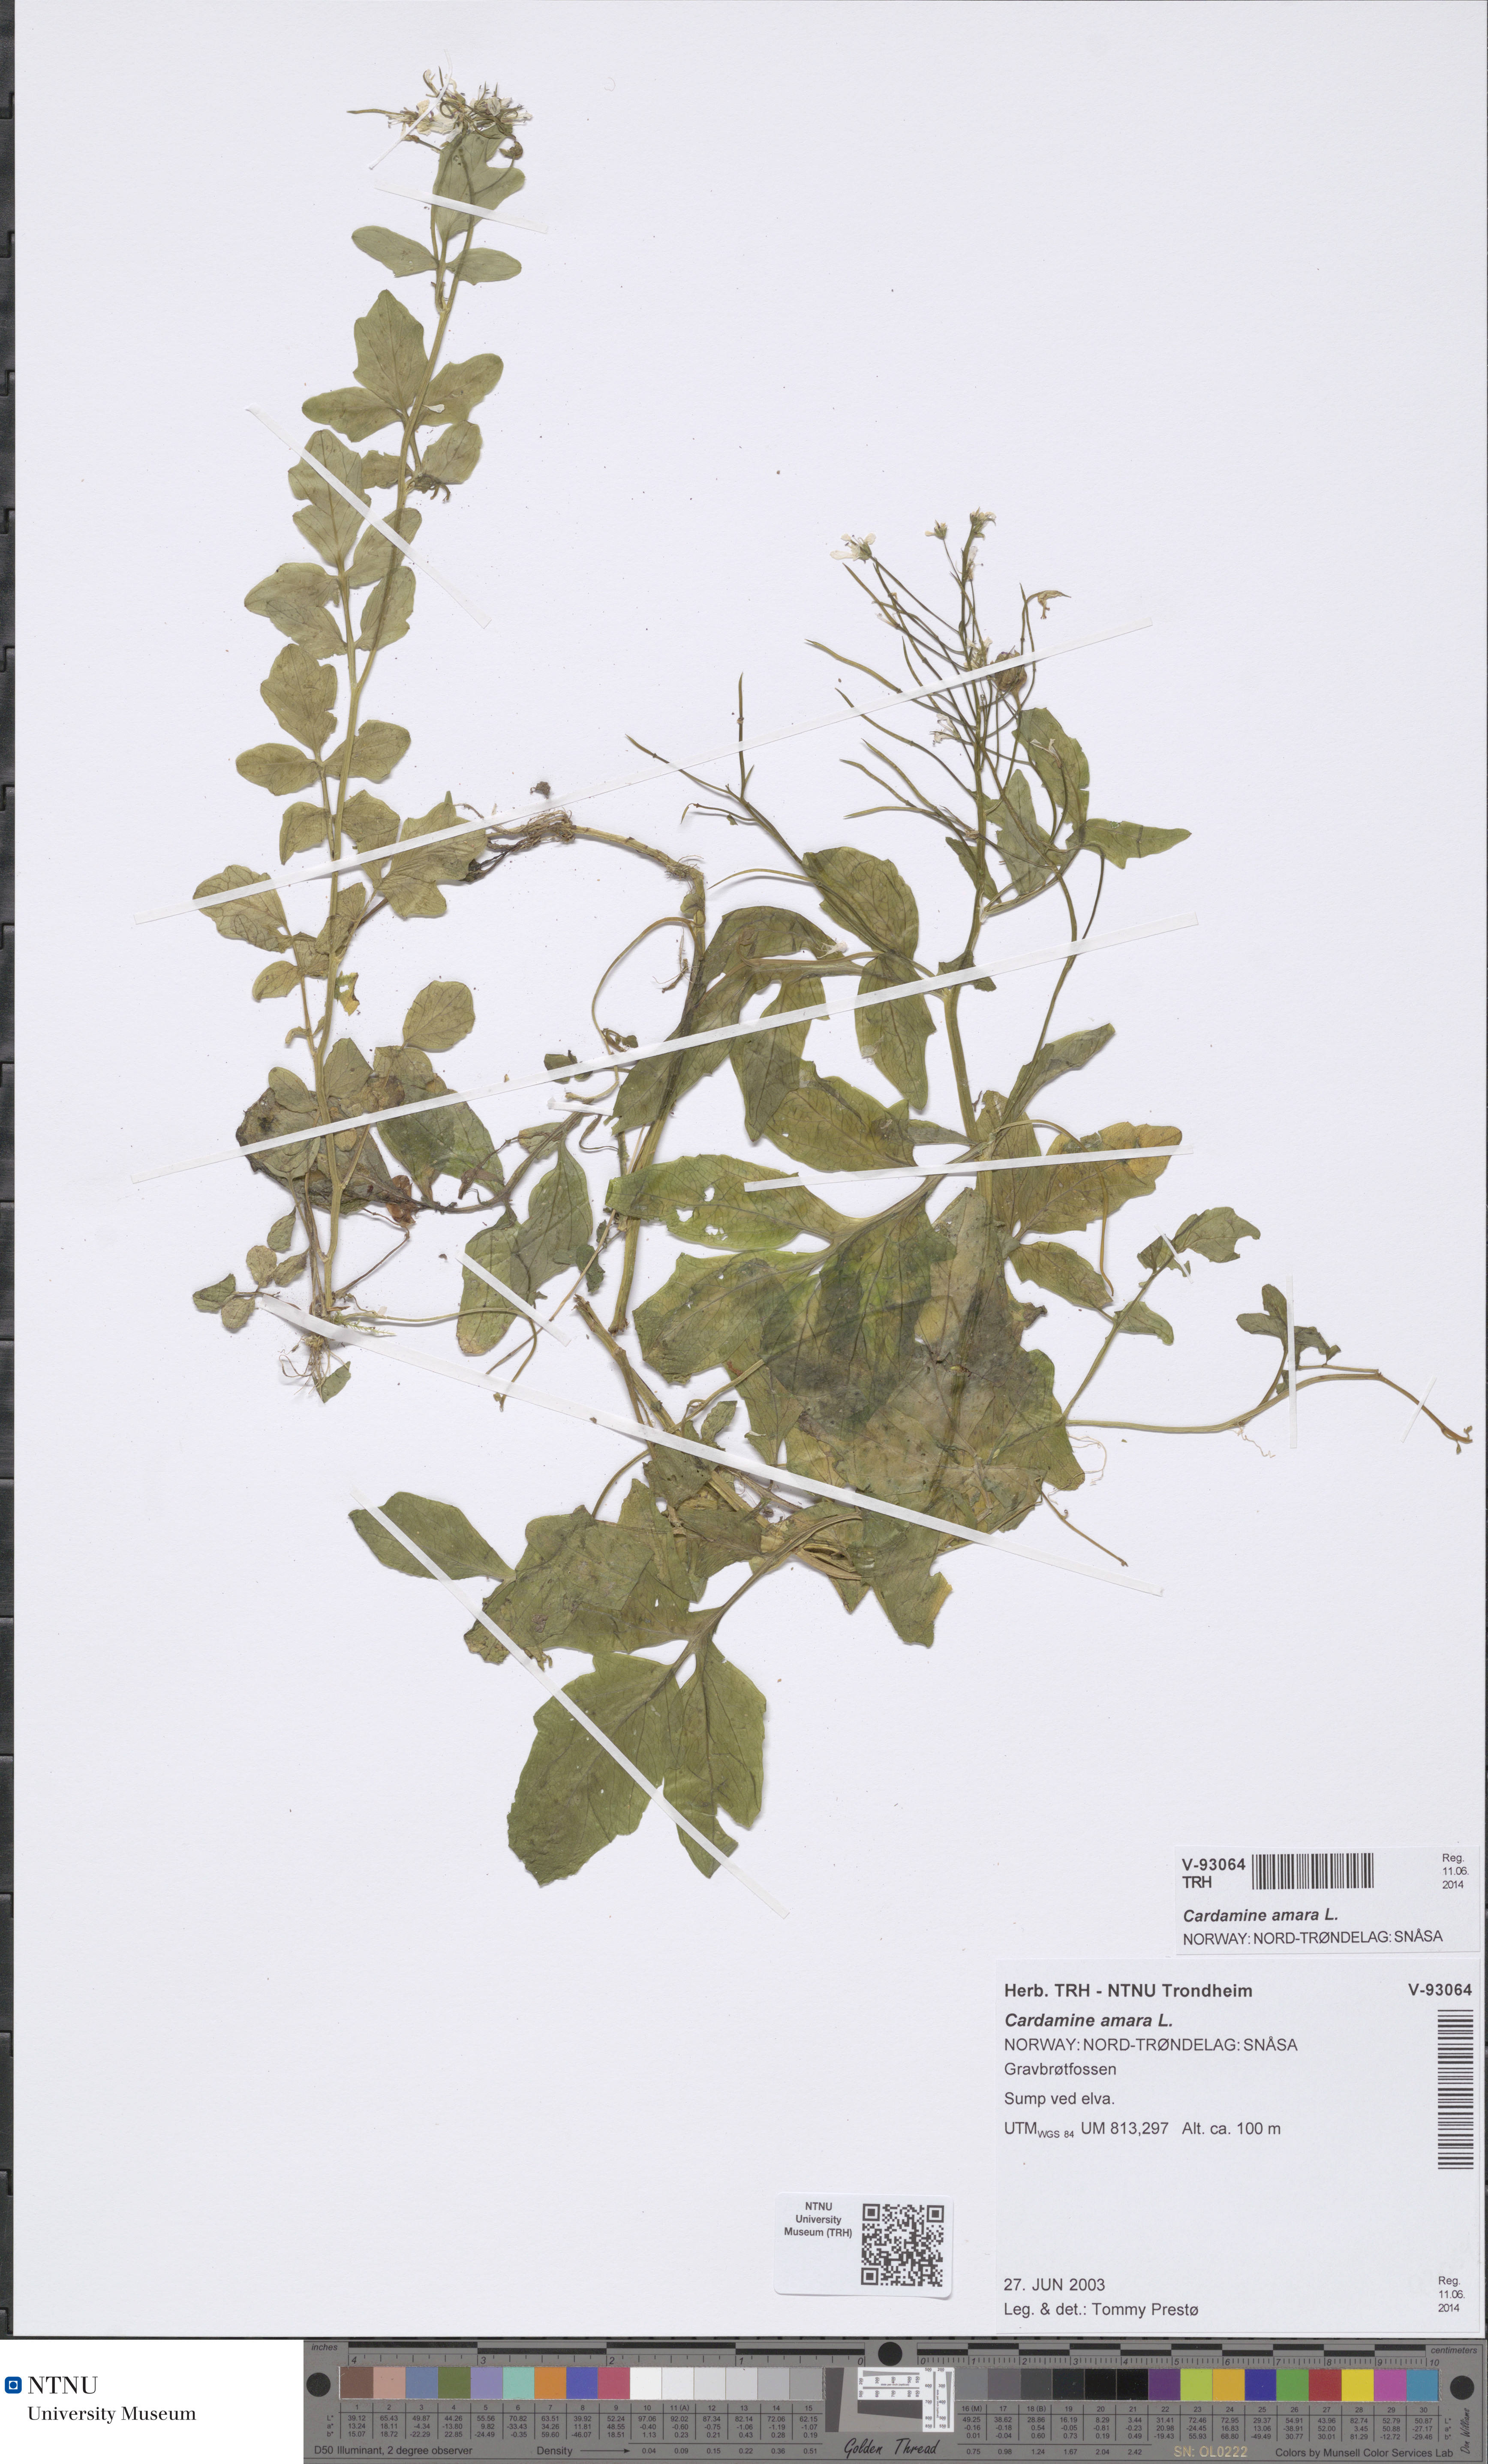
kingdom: Plantae
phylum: Tracheophyta
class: Magnoliopsida
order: Brassicales
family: Brassicaceae
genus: Cardamine
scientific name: Cardamine amara
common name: Large bitter-cress
